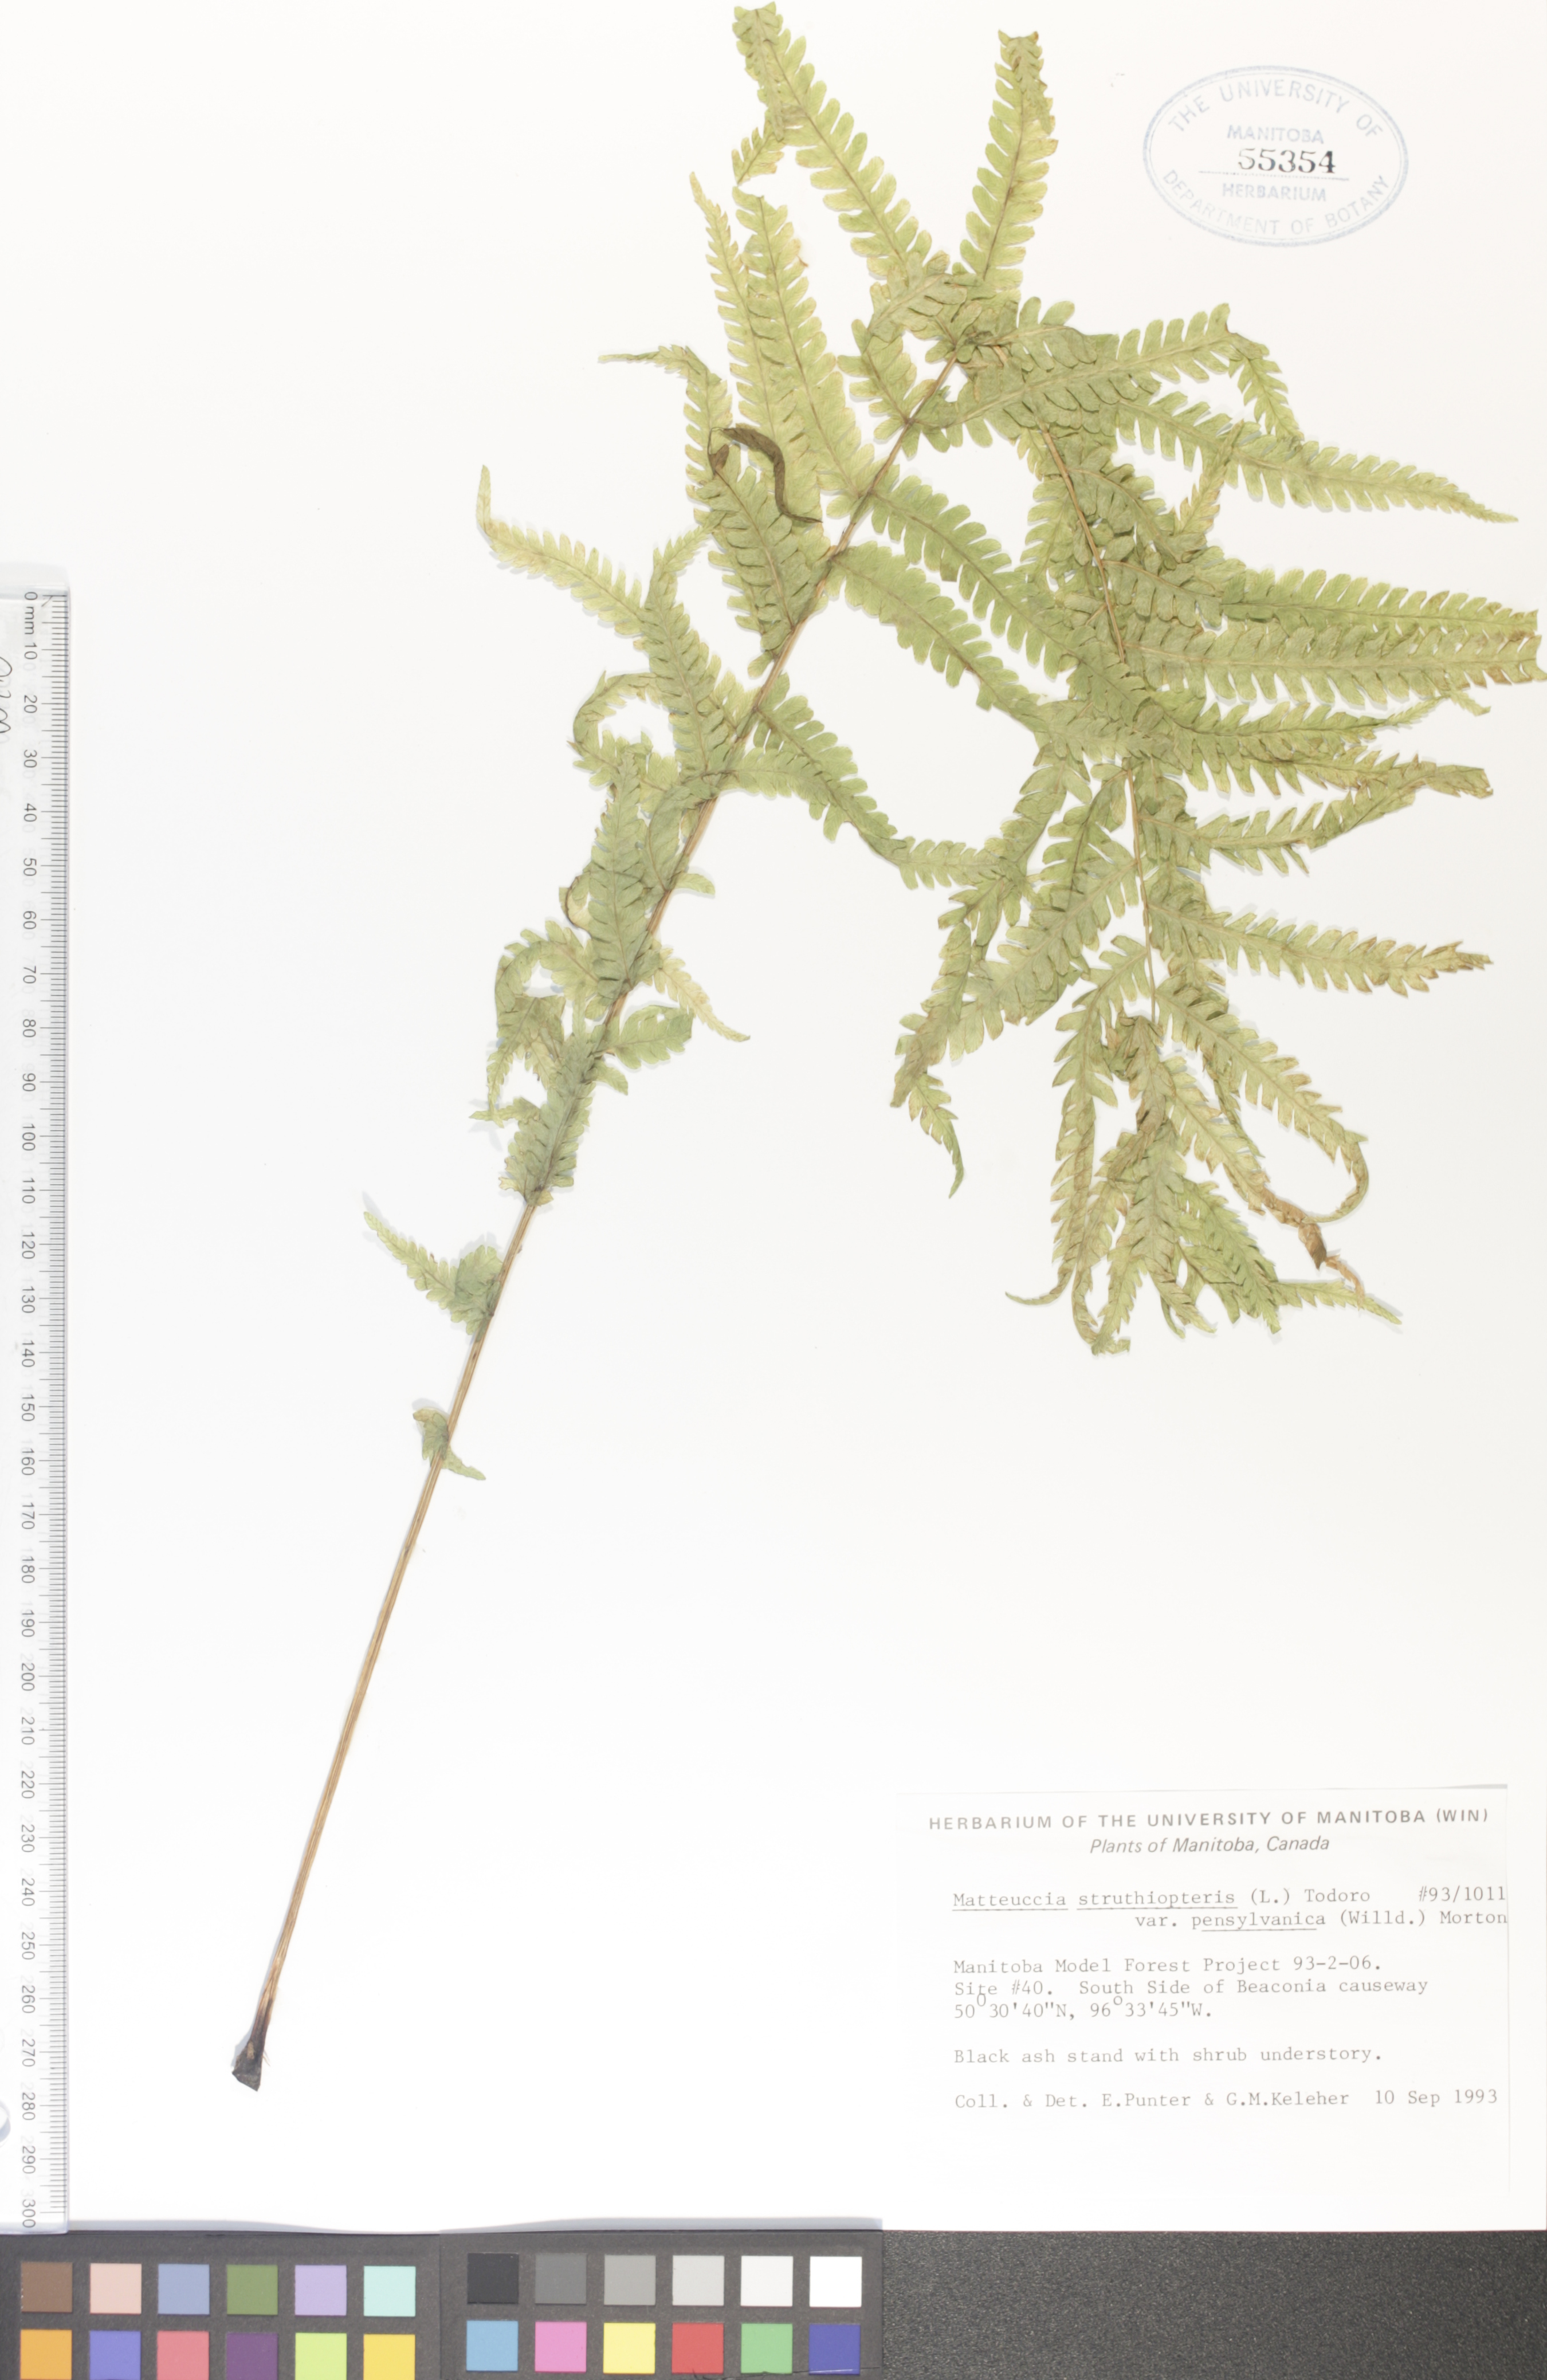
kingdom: Plantae
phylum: Tracheophyta
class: Polypodiopsida
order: Polypodiales
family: Onocleaceae
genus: Matteuccia
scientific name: Matteuccia pensylvanica
